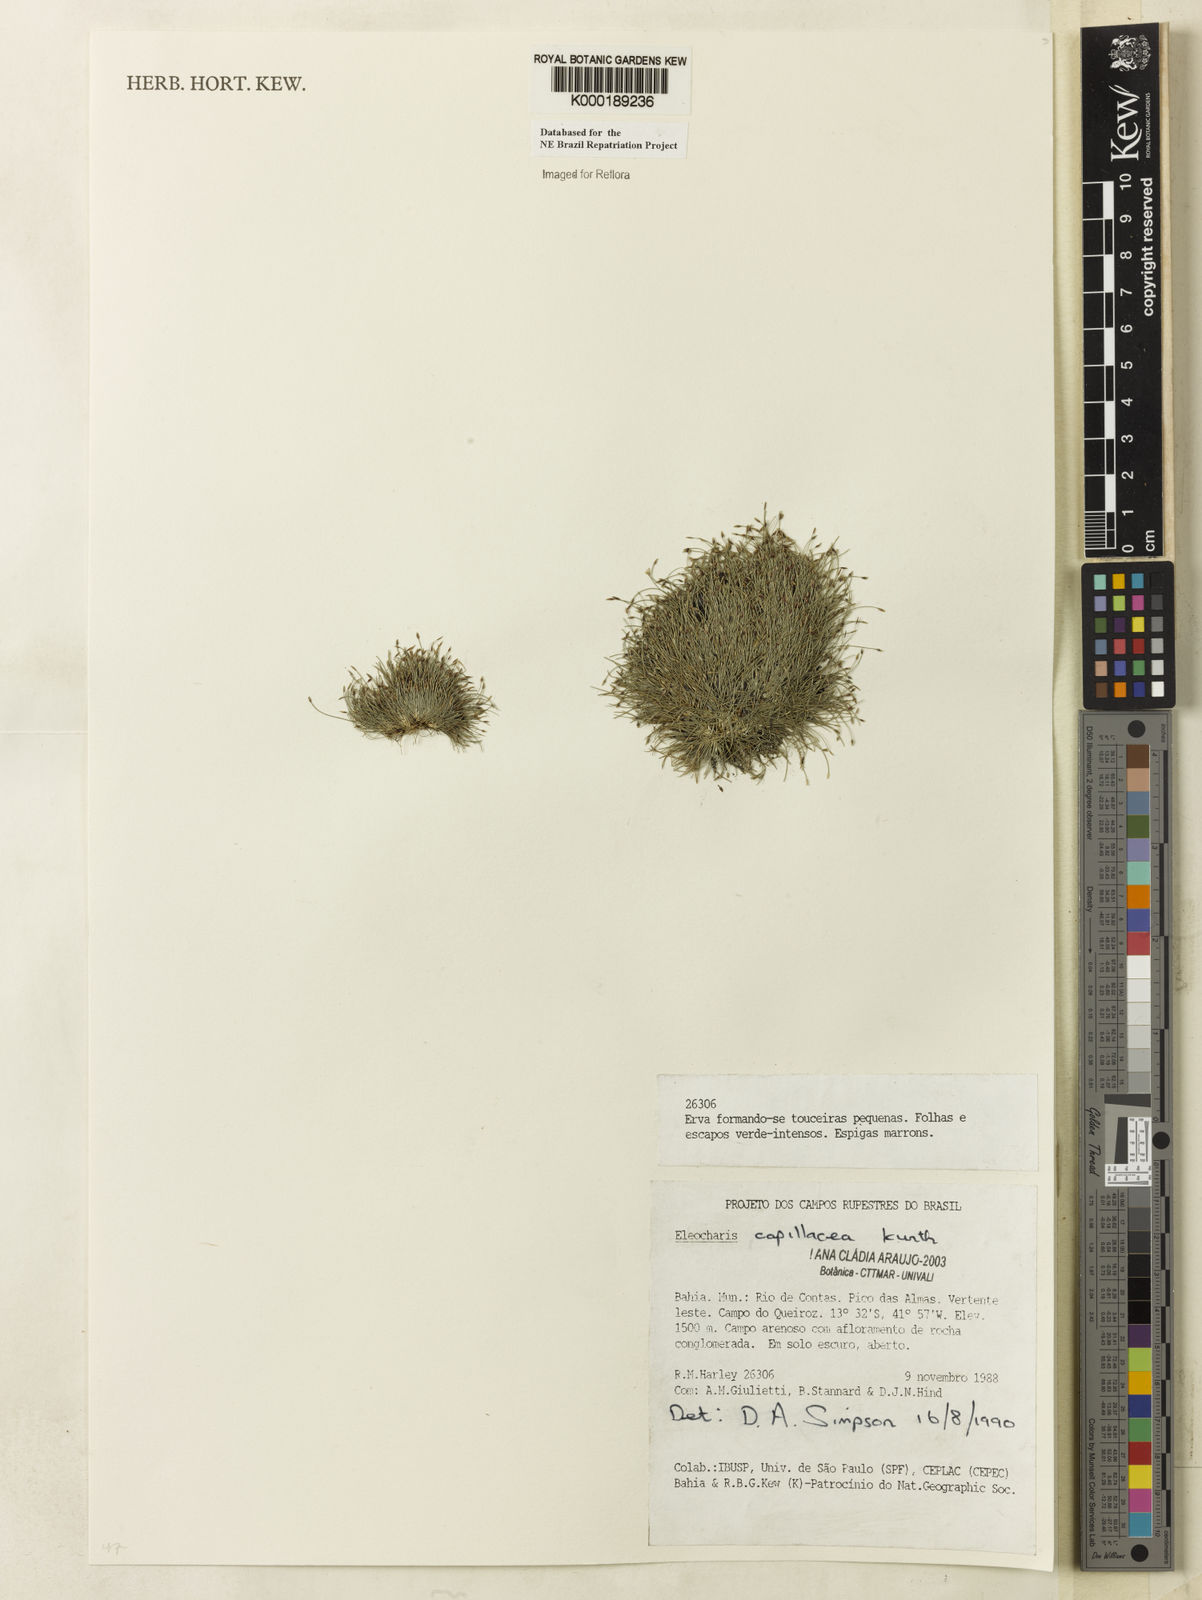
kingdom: Plantae
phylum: Tracheophyta
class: Liliopsida
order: Poales
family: Cyperaceae
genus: Eleocharis
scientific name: Eleocharis
